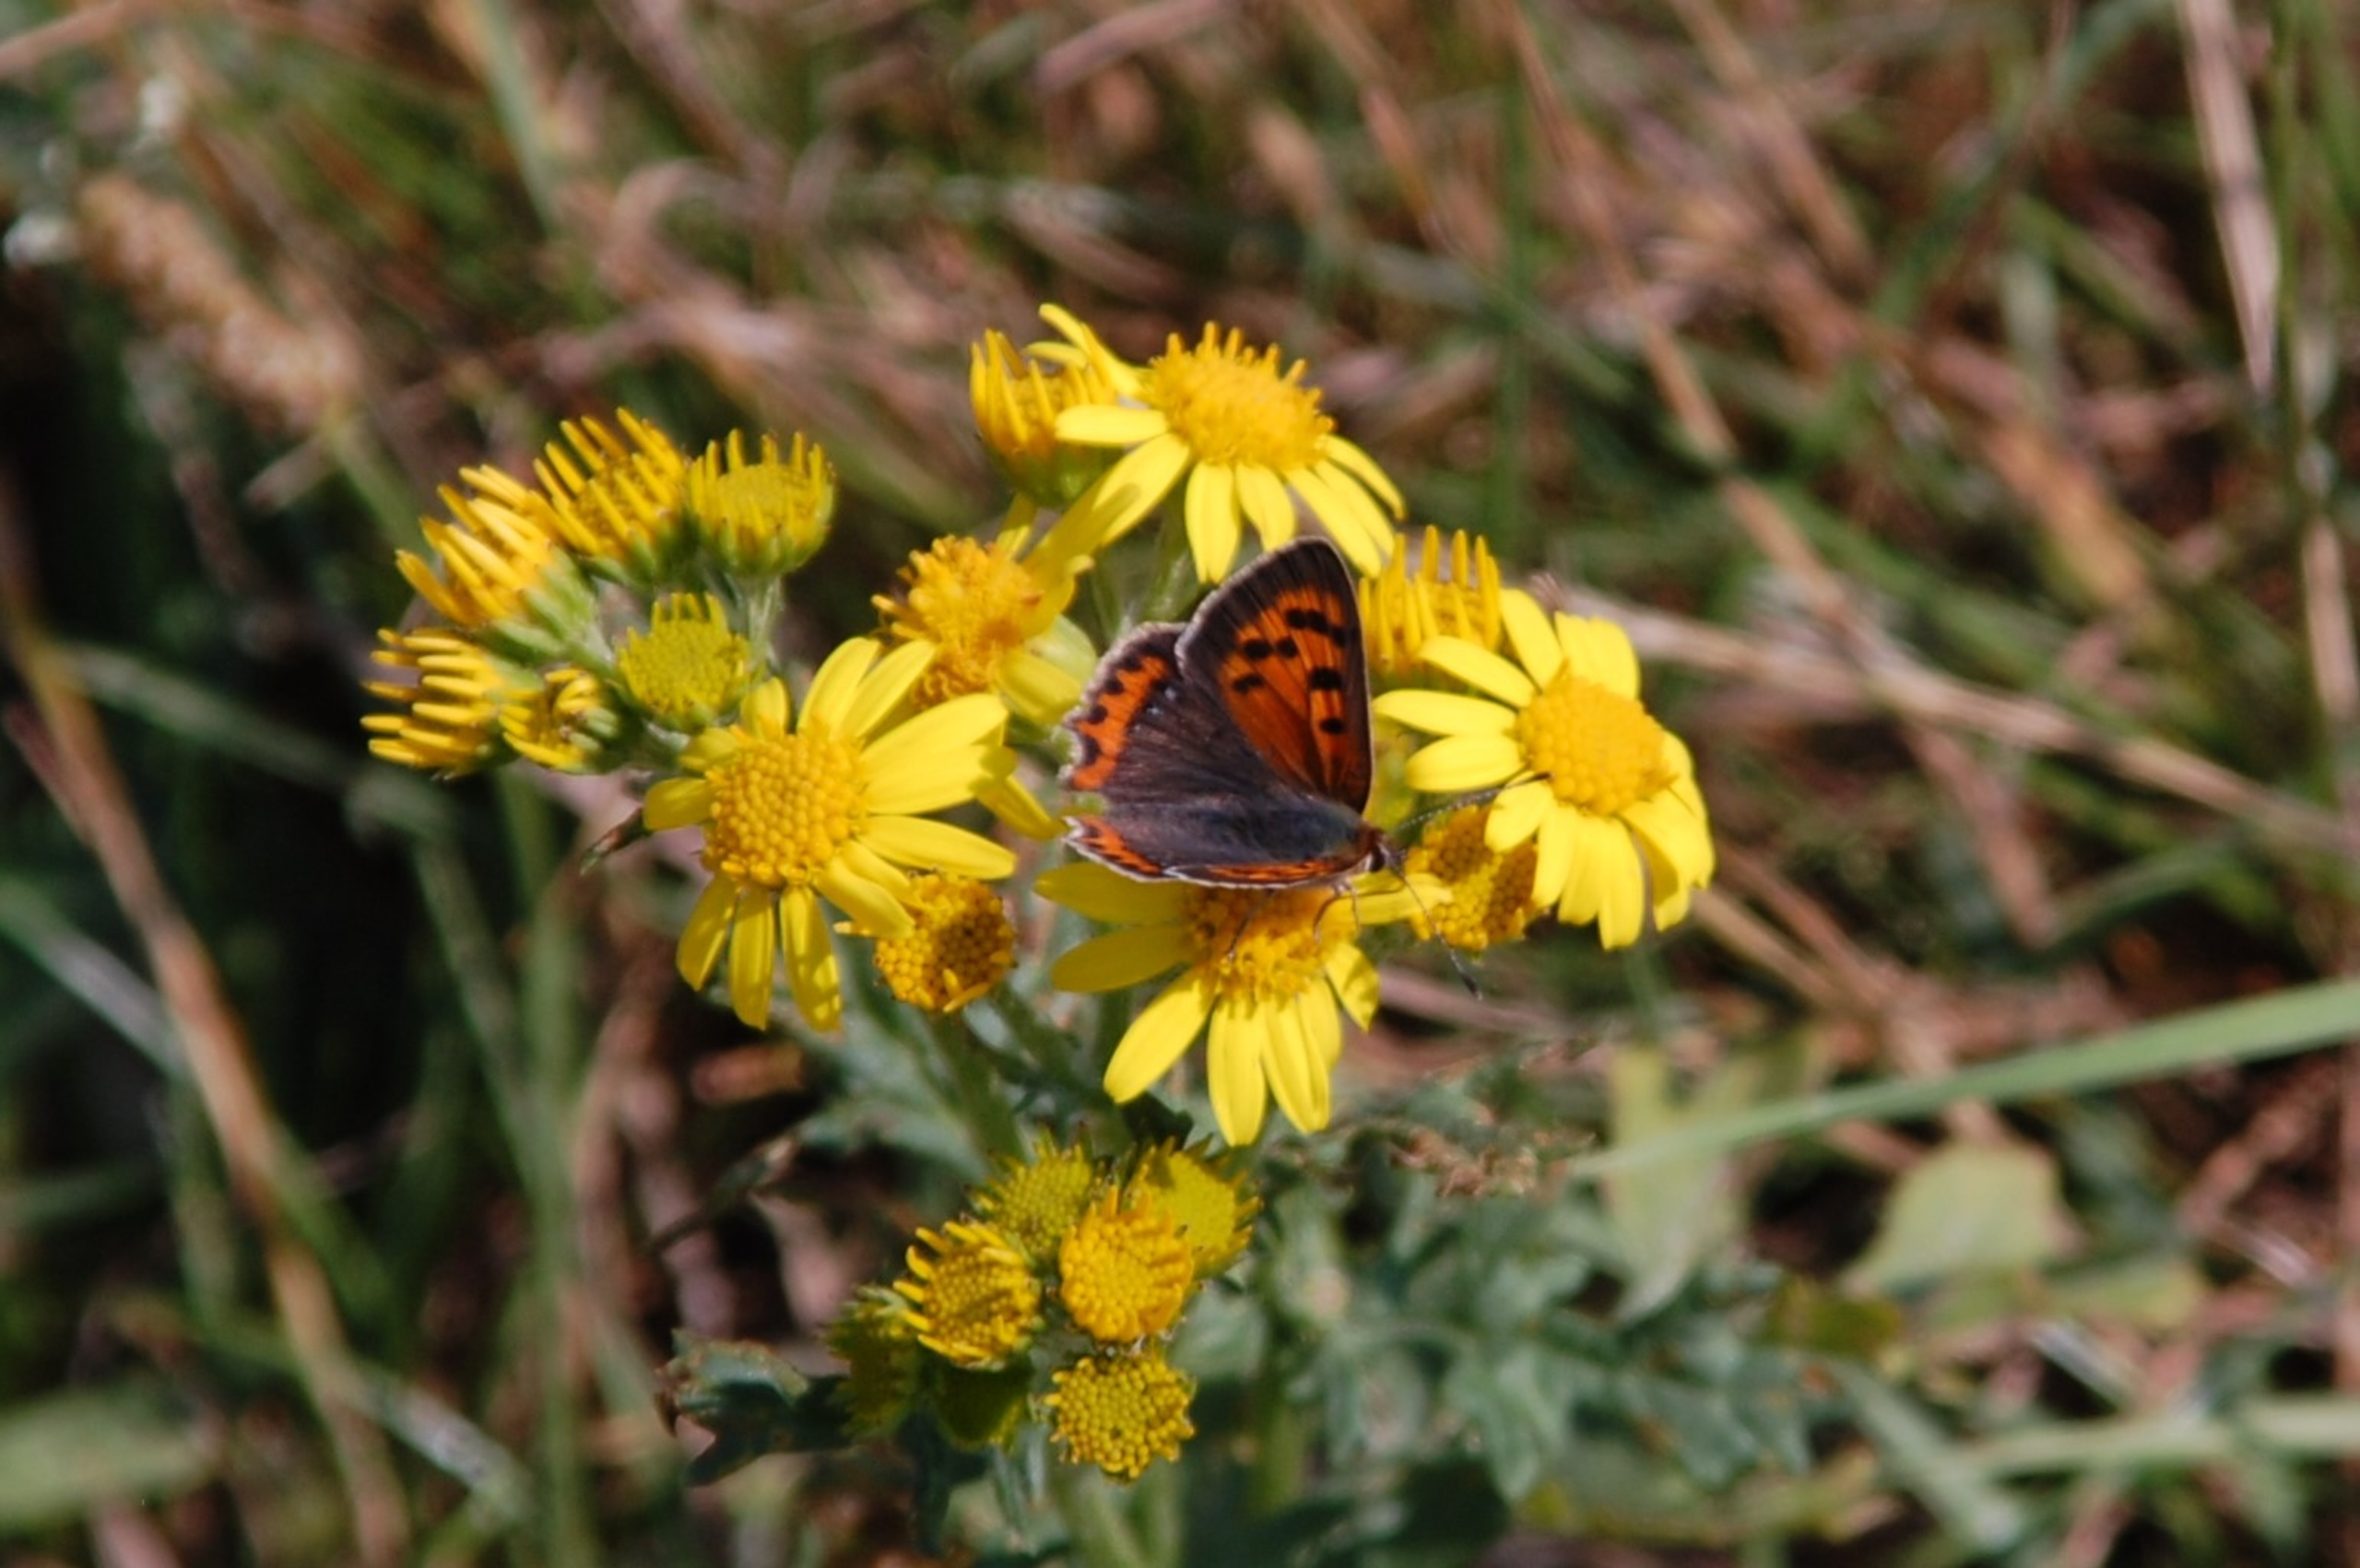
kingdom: Animalia
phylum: Arthropoda
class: Insecta
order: Lepidoptera
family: Lycaenidae
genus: Lycaena
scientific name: Lycaena phlaeas
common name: Lille ildfugl
